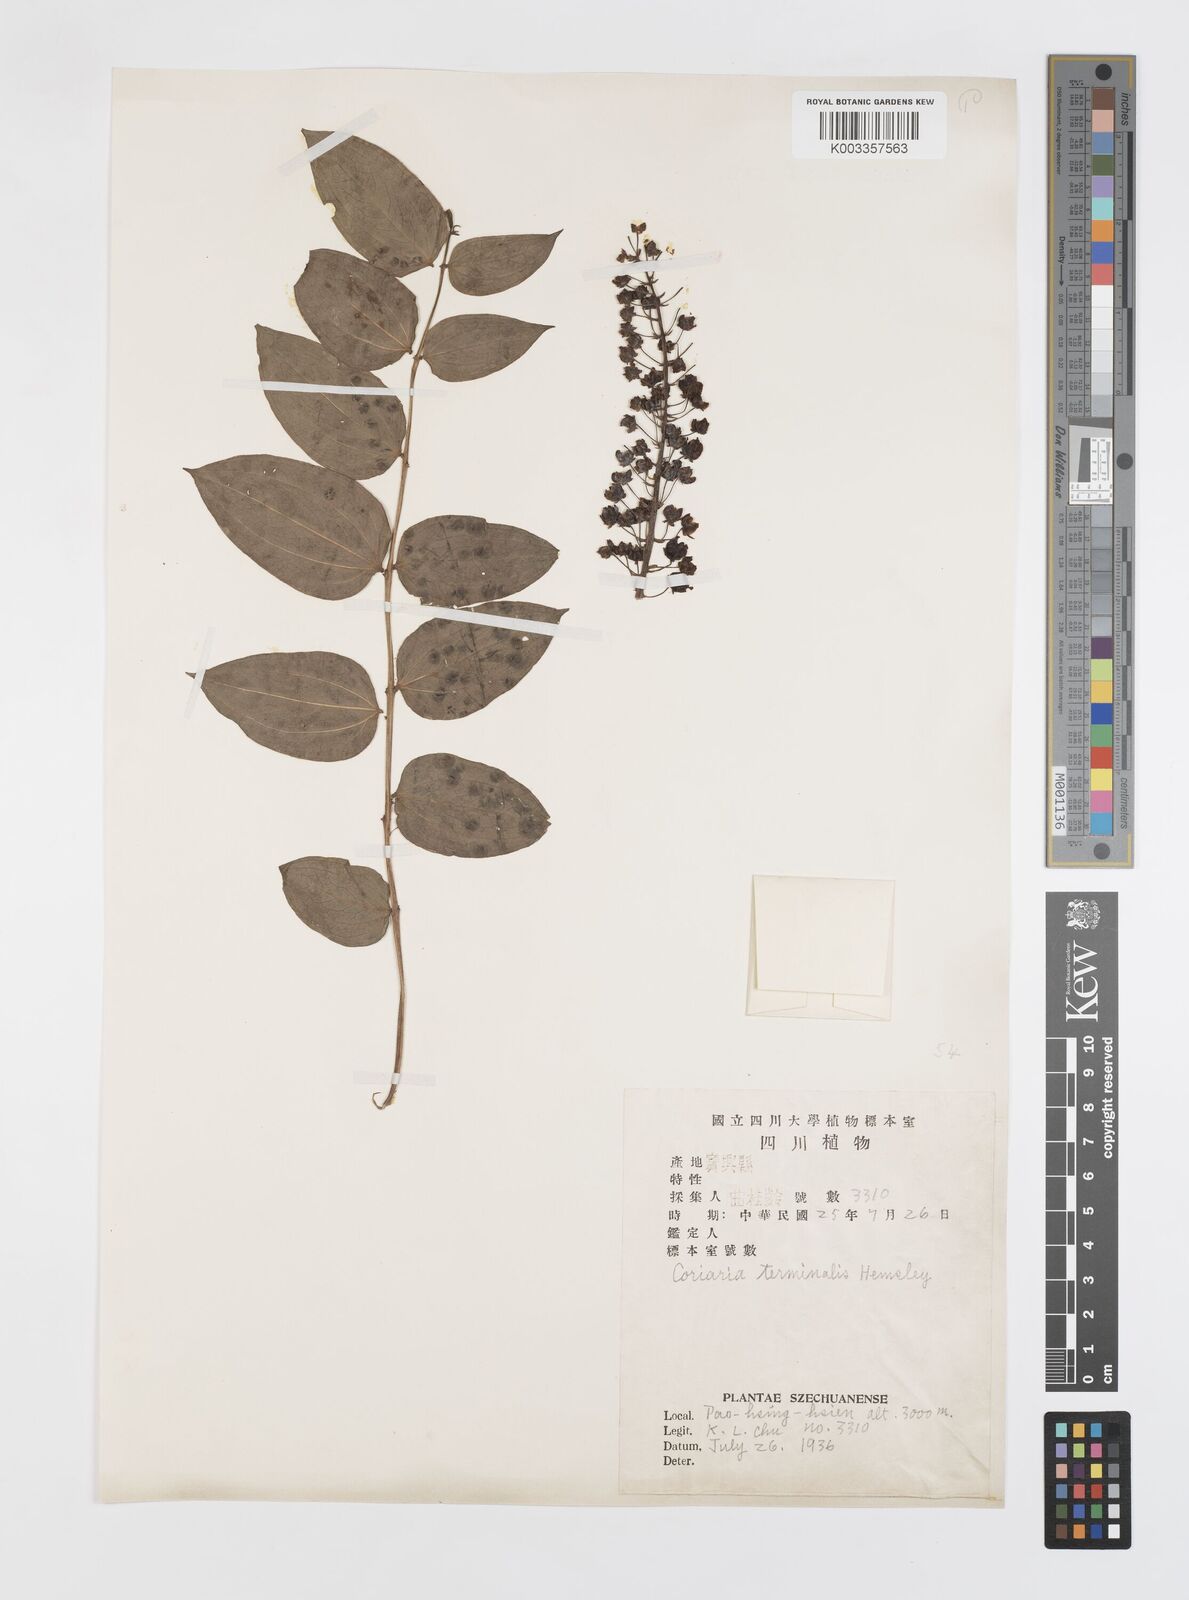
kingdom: Plantae
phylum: Tracheophyta
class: Magnoliopsida
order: Cucurbitales
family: Coriariaceae
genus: Coriaria
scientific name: Coriaria terminalis
